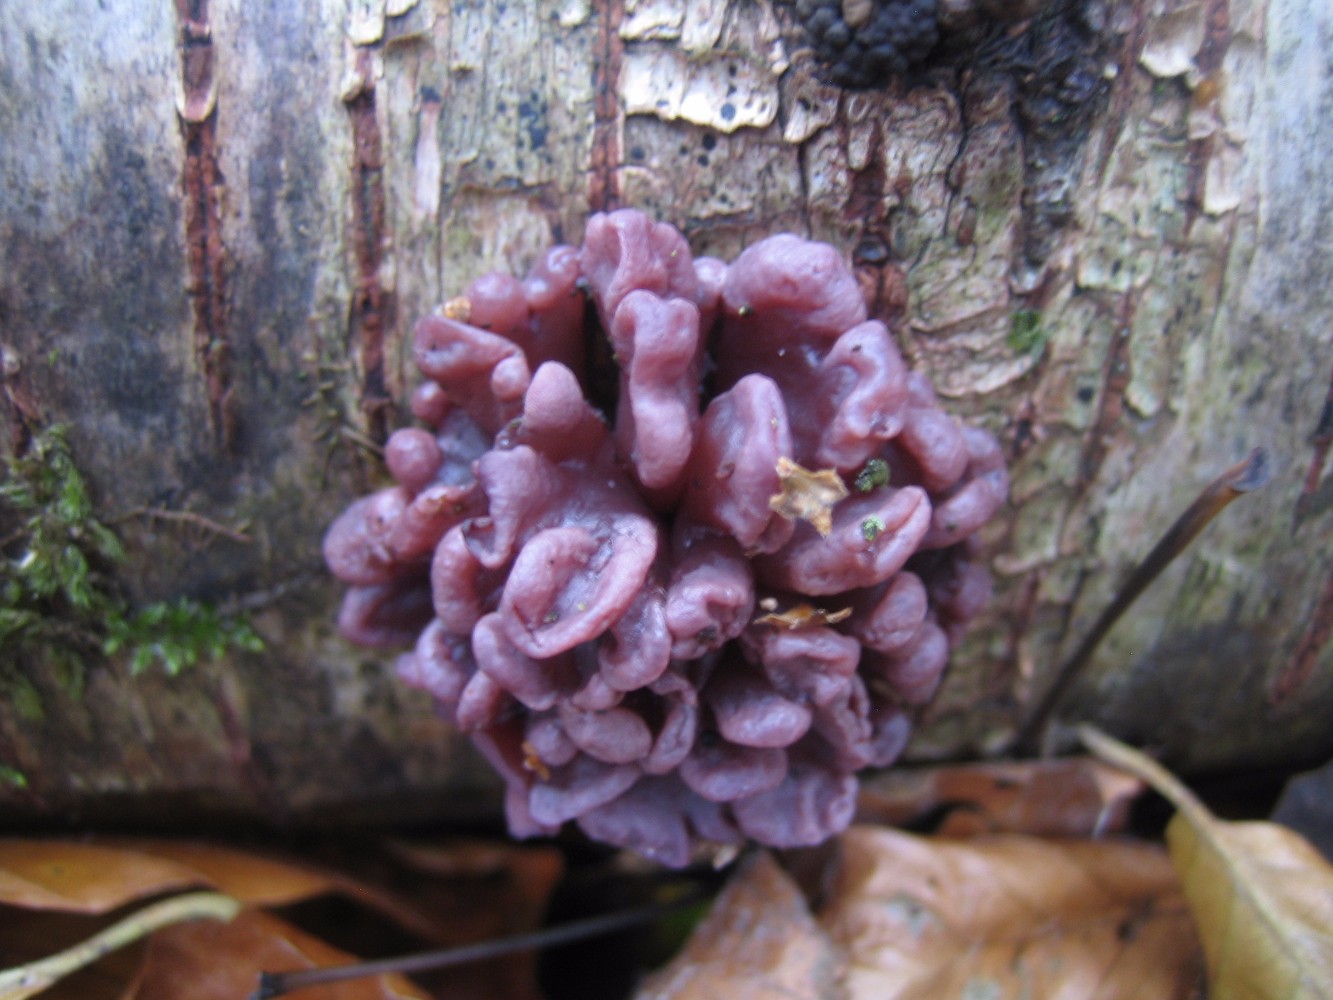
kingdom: Fungi
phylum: Ascomycota
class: Leotiomycetes
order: Helotiales
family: Gelatinodiscaceae
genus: Ascocoryne
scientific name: Ascocoryne sarcoides
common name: rødlilla sejskive
